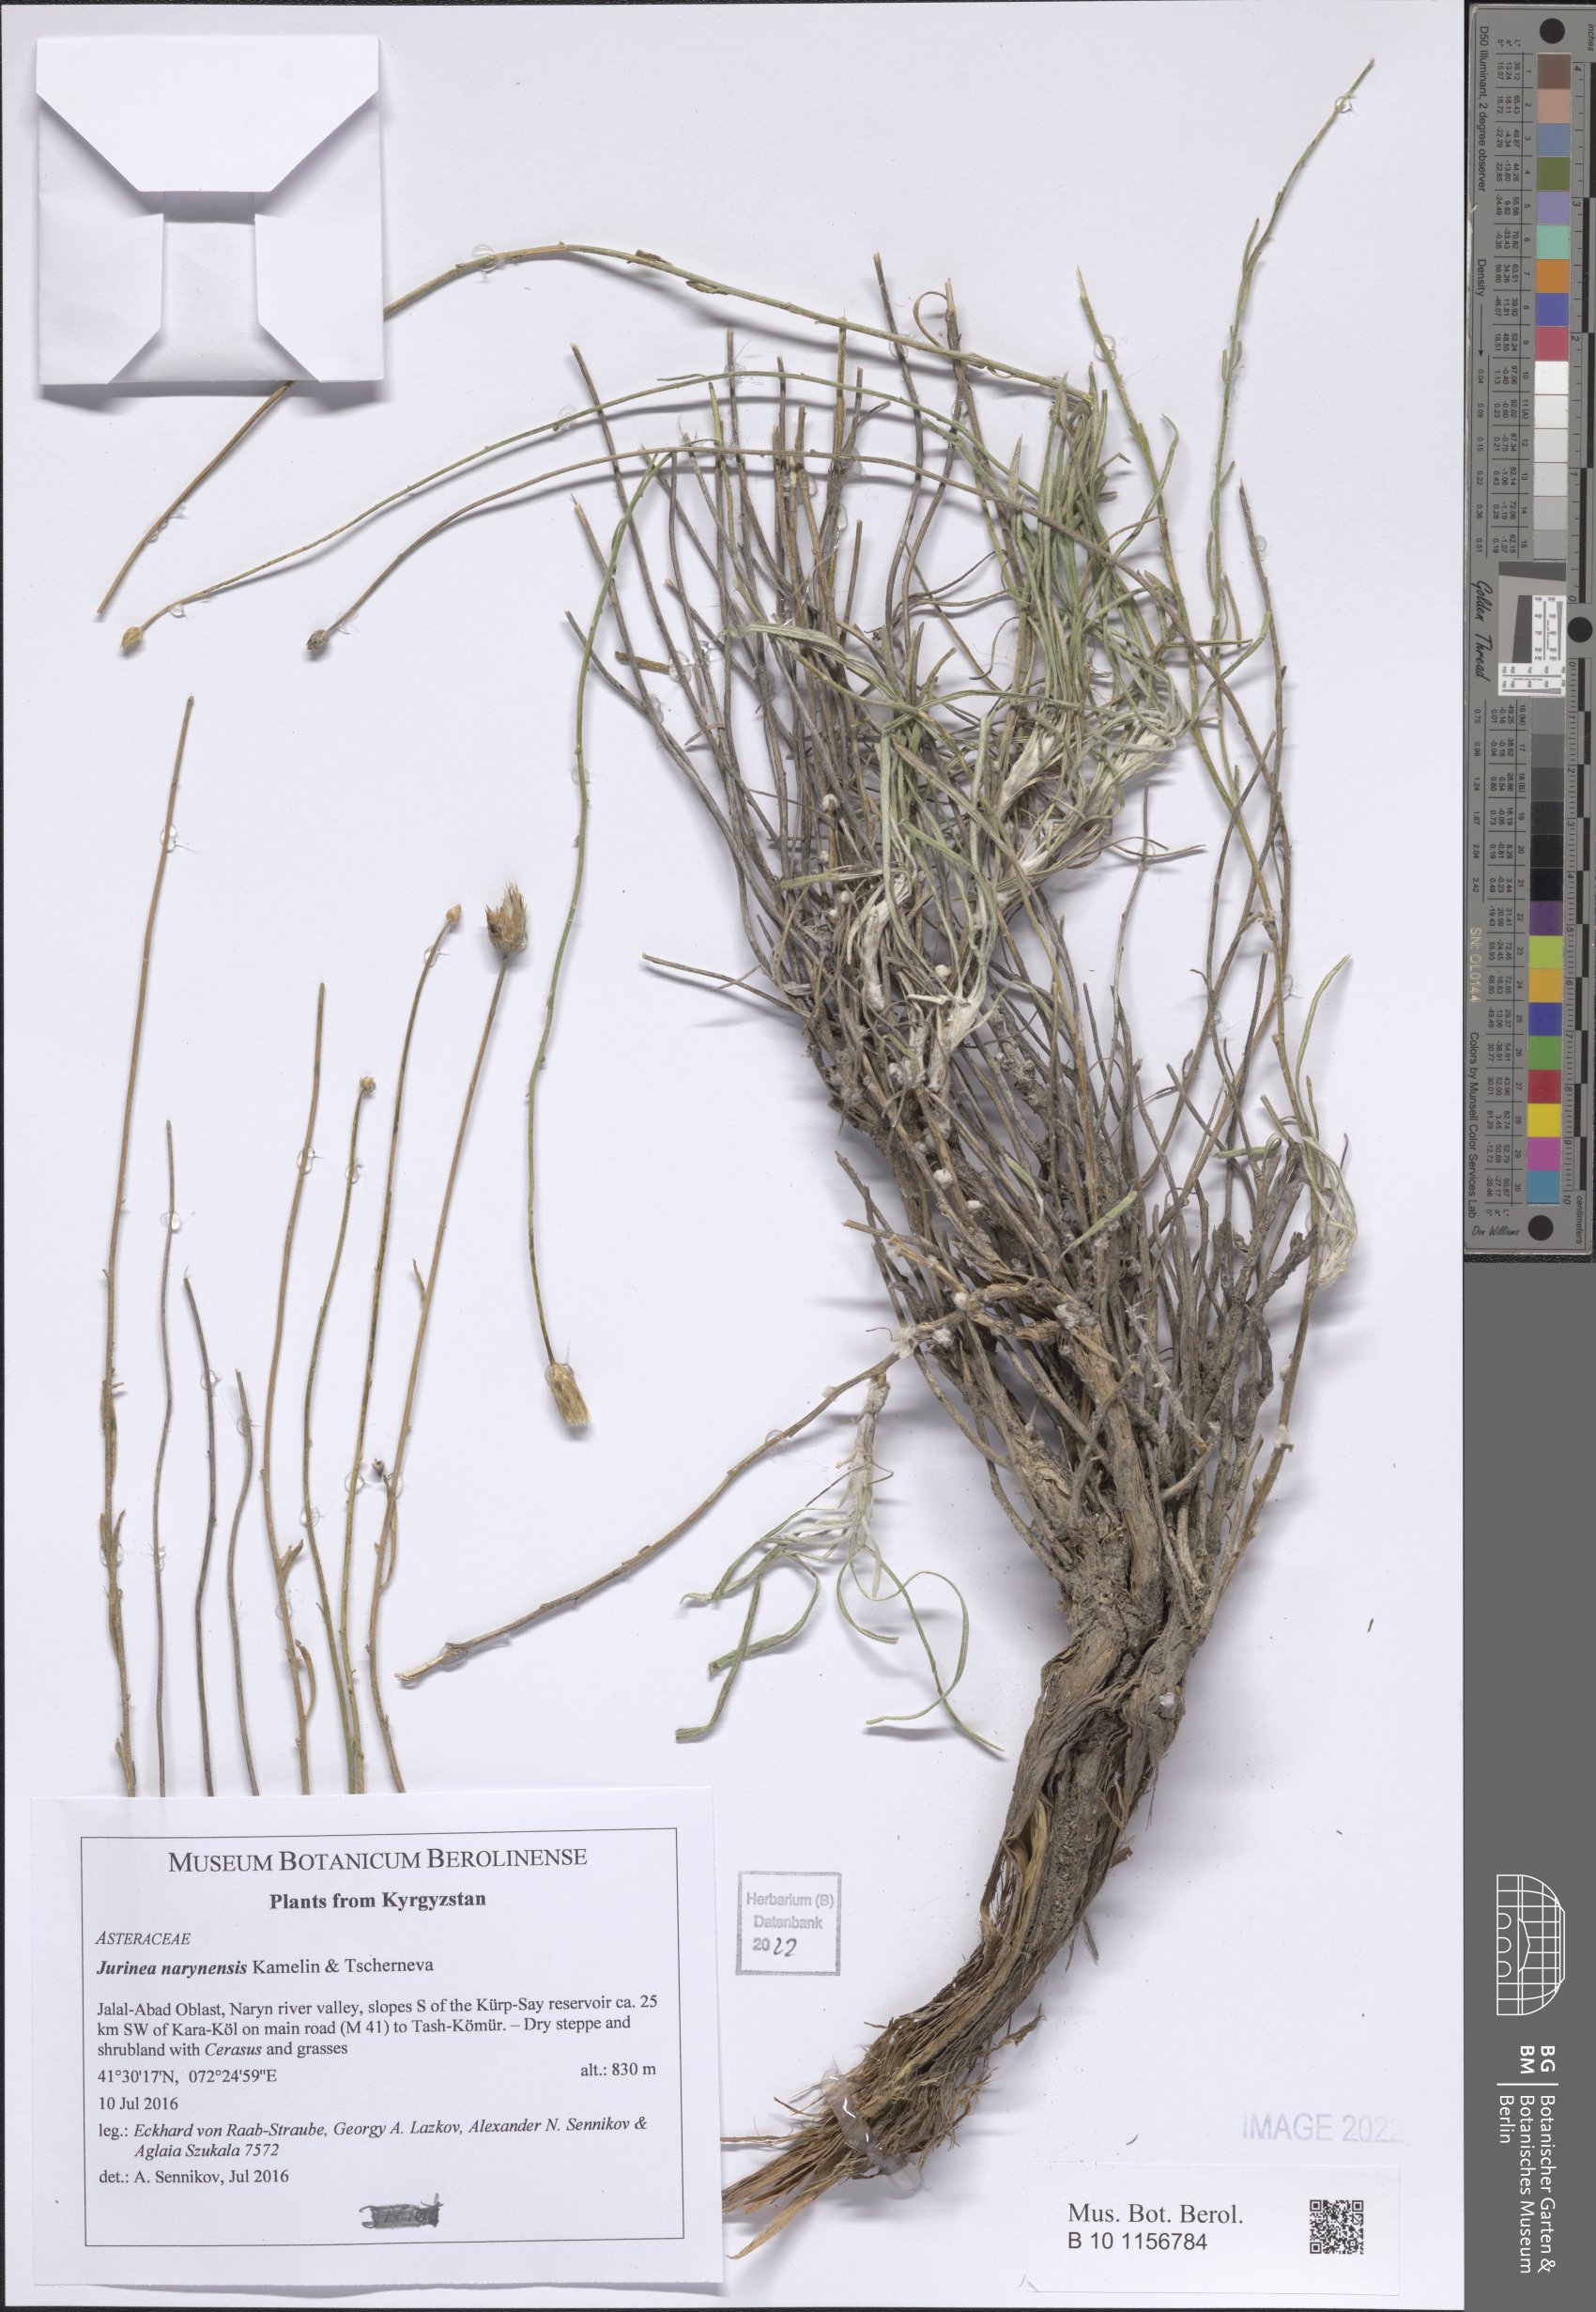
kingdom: Plantae
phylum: Tracheophyta
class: Magnoliopsida
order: Asterales
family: Asteraceae
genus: Jurinea
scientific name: Jurinea narynensis
